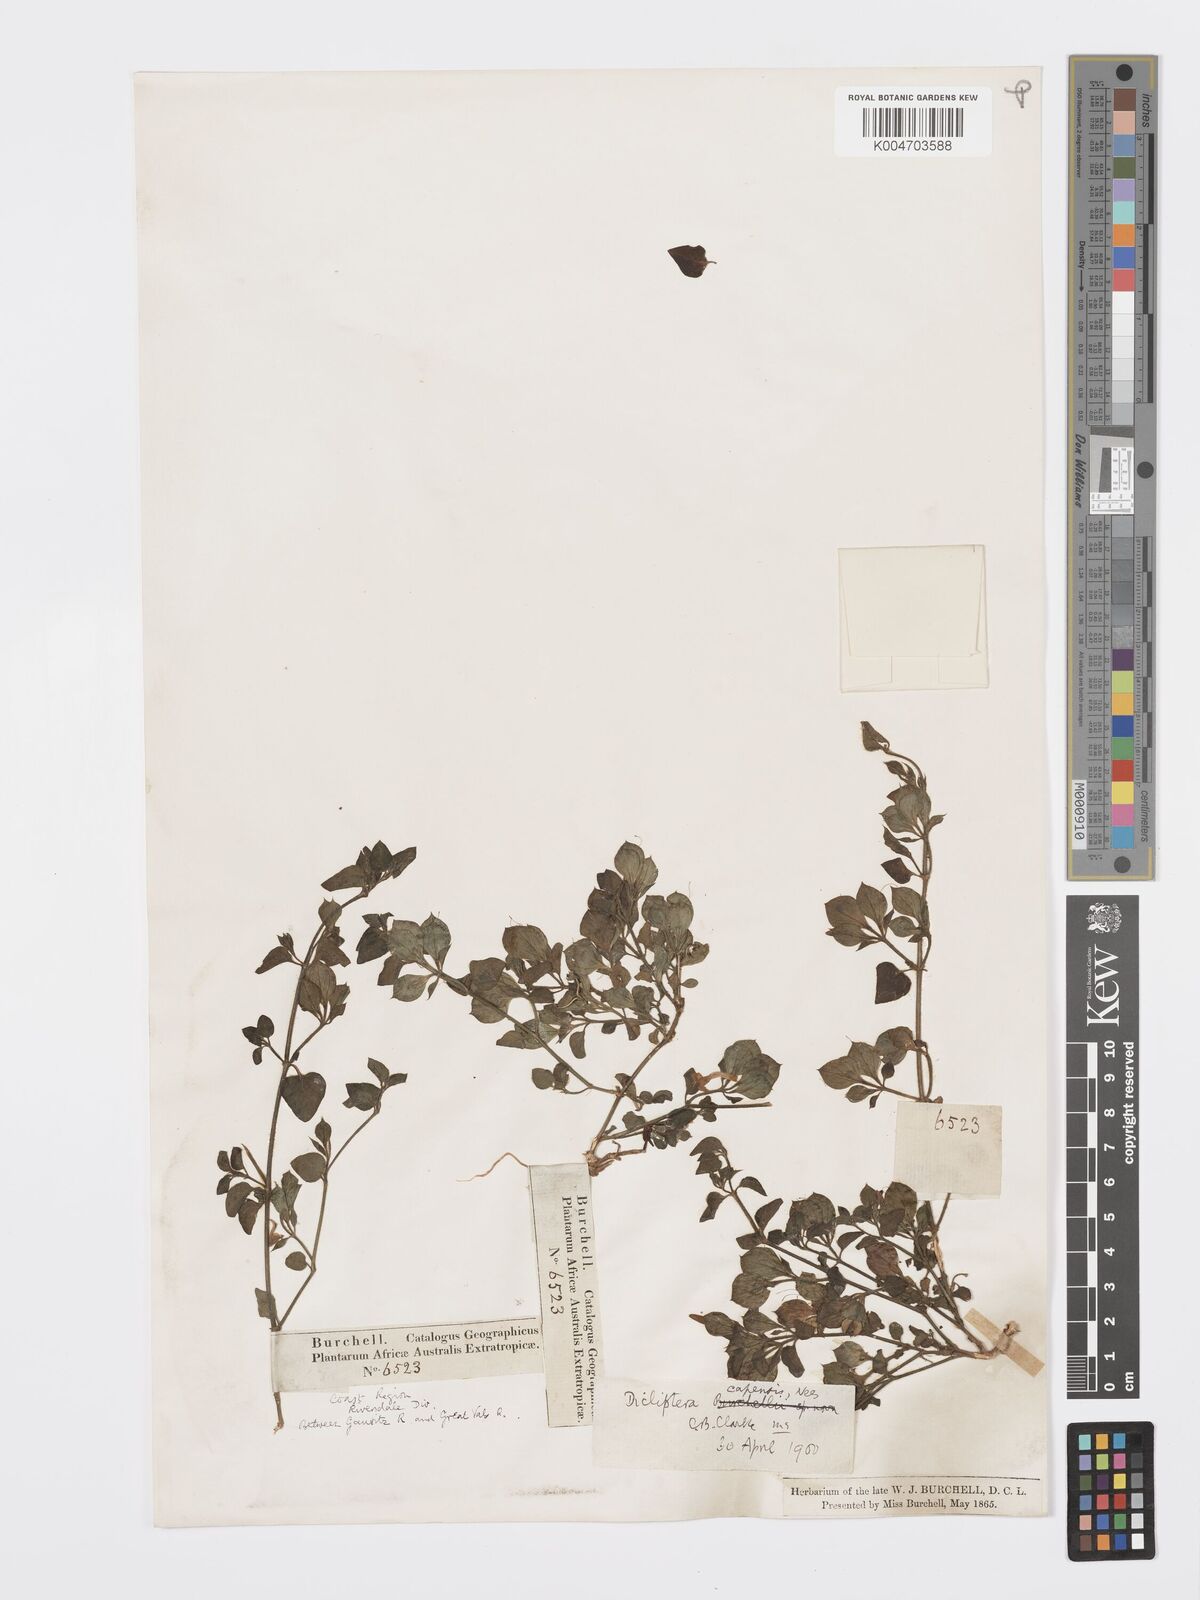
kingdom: Plantae
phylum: Tracheophyta
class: Magnoliopsida
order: Lamiales
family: Acanthaceae
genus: Dicliptera
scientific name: Dicliptera capensis
